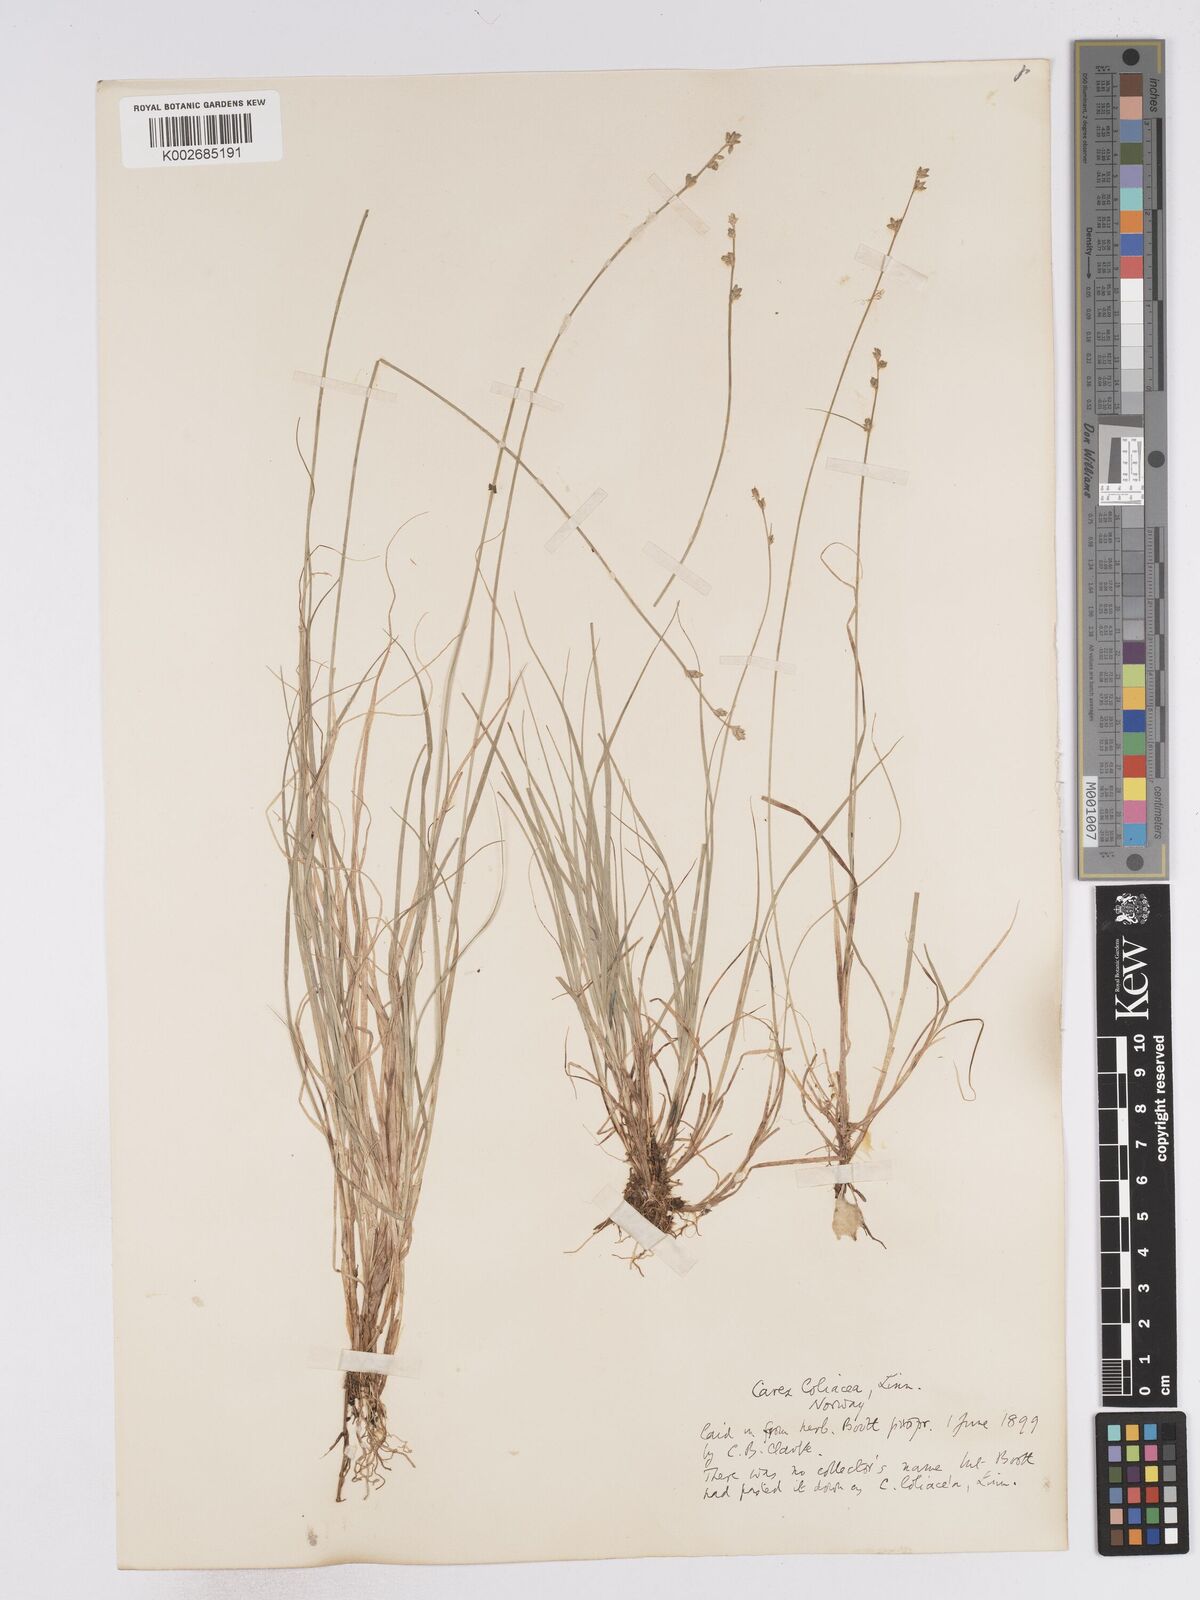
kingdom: Plantae
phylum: Tracheophyta
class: Liliopsida
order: Poales
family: Cyperaceae
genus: Carex
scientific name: Carex loliacea
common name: Ryegrass sedge
